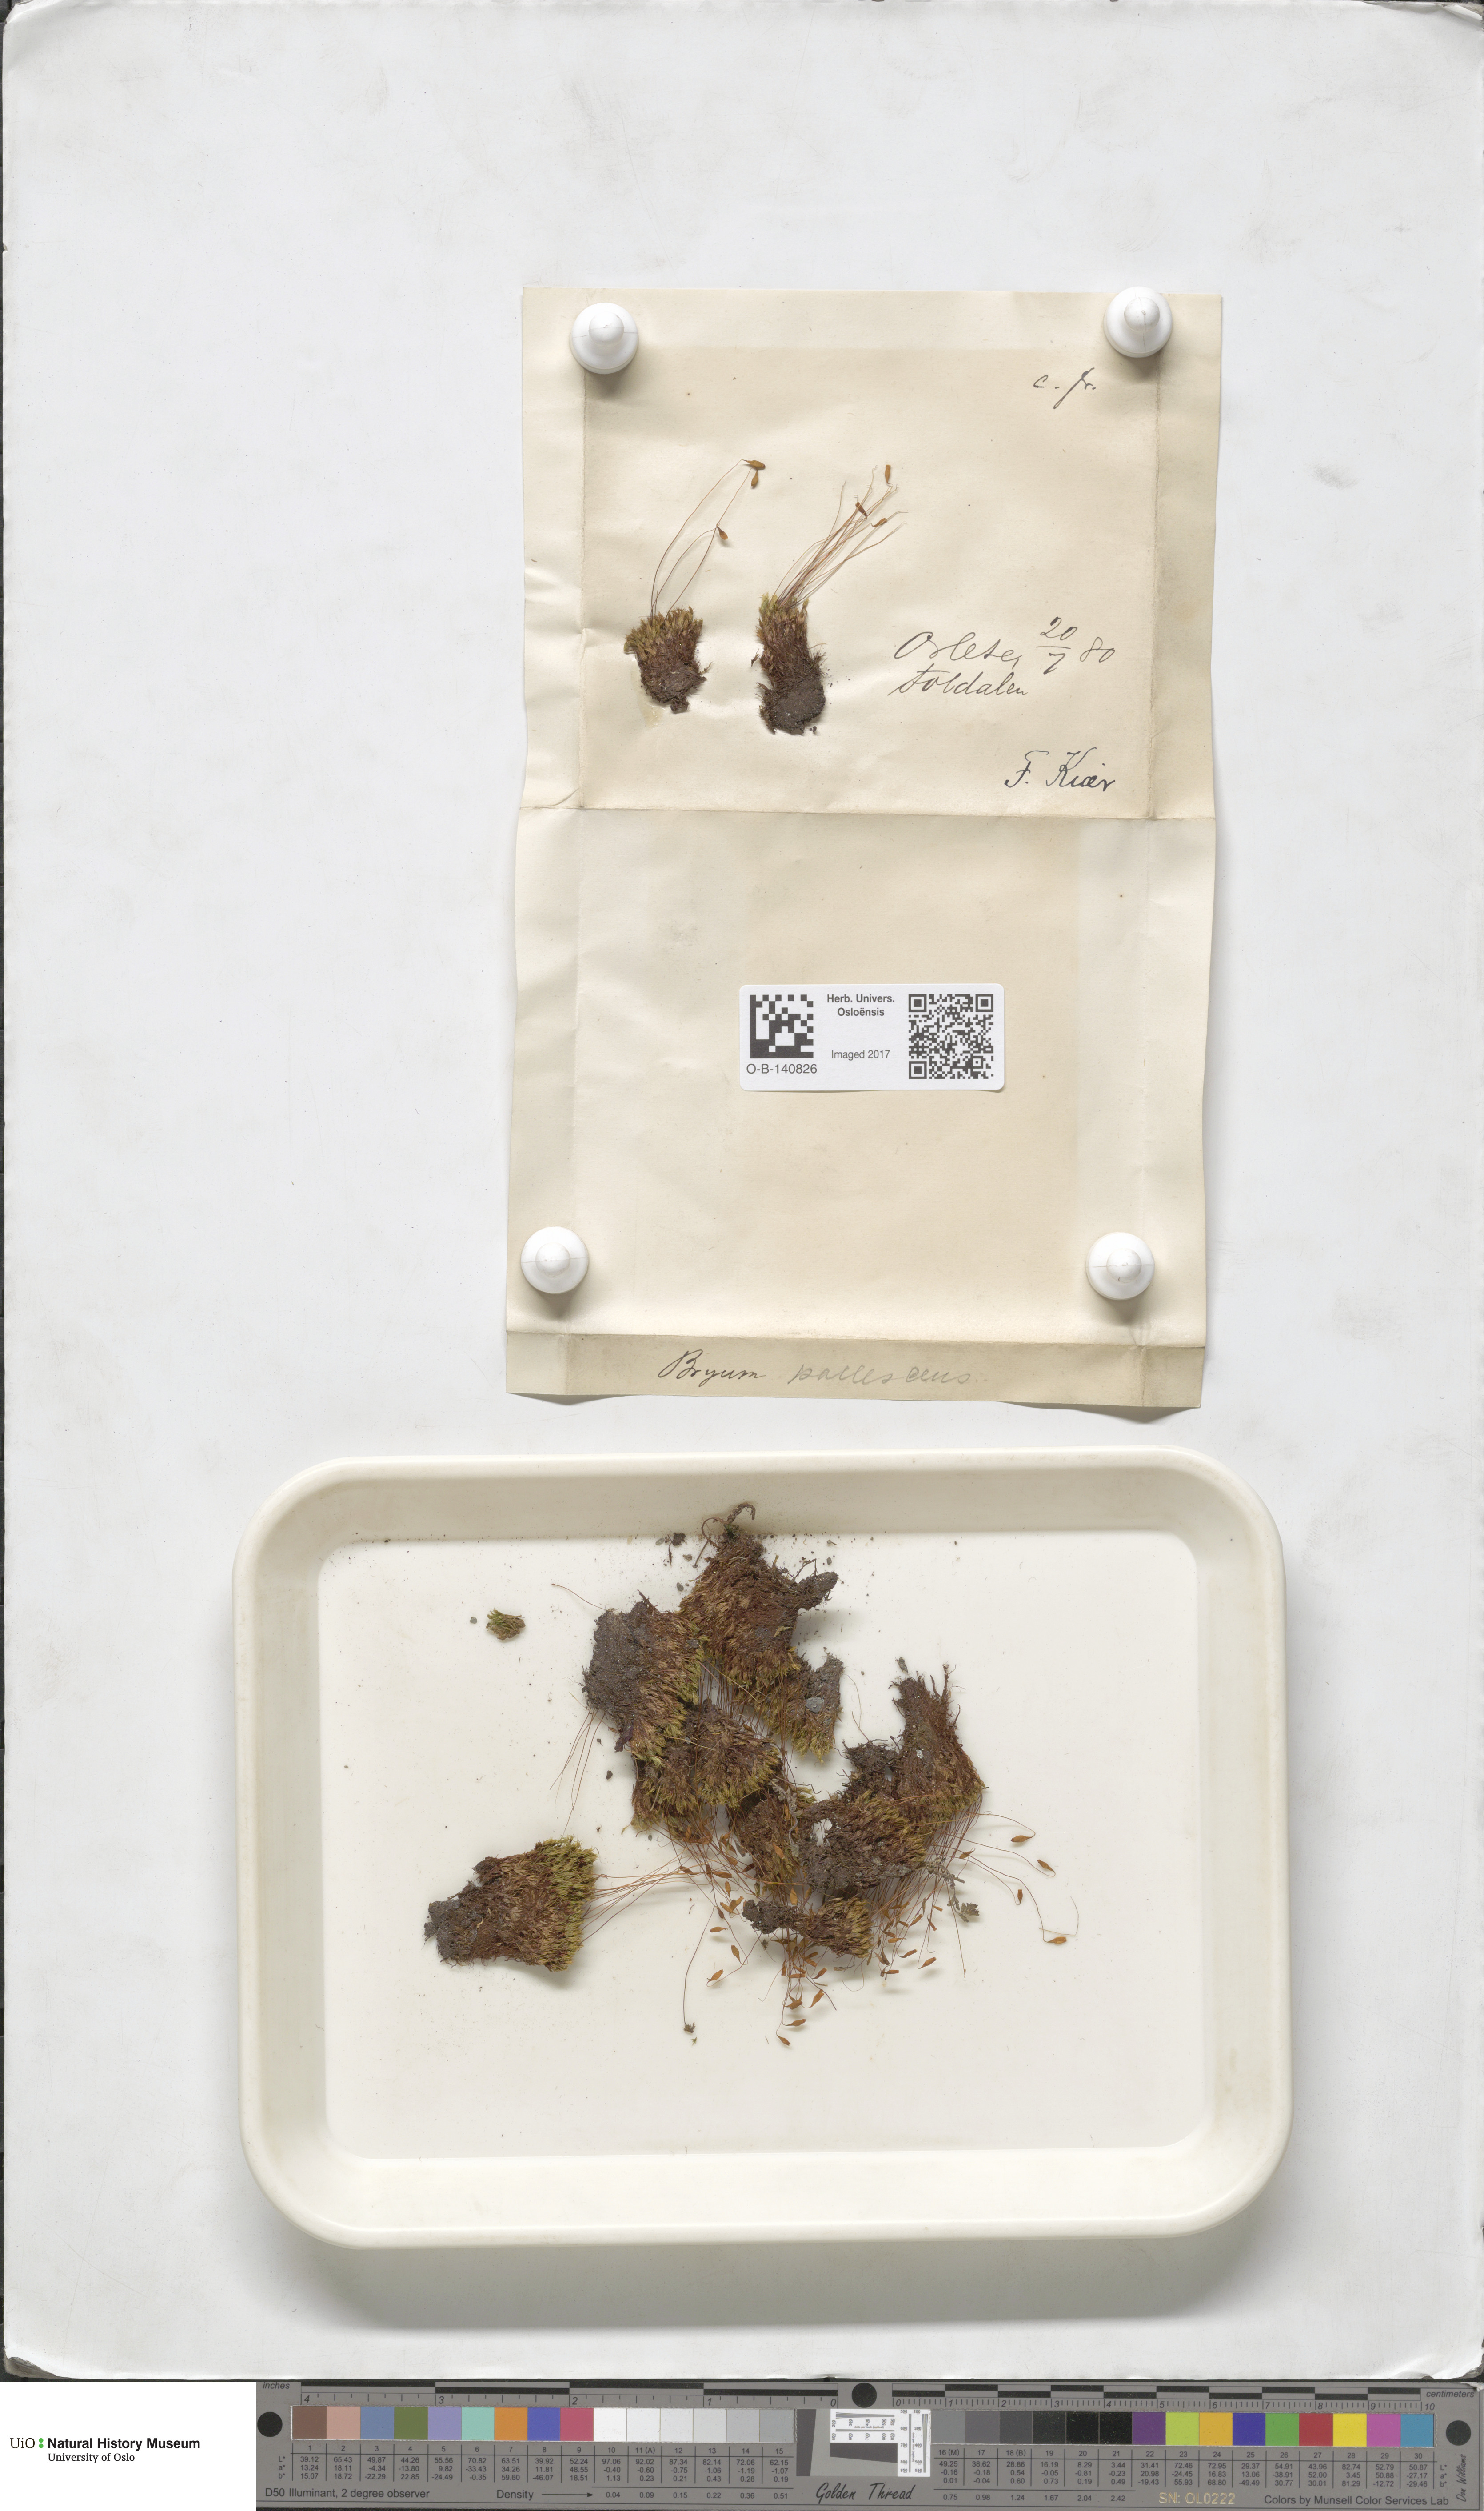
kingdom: Plantae
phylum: Bryophyta
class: Bryopsida
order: Bryales
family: Bryaceae
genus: Ptychostomum
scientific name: Ptychostomum pallescens
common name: Tall-clustered thread-moss
